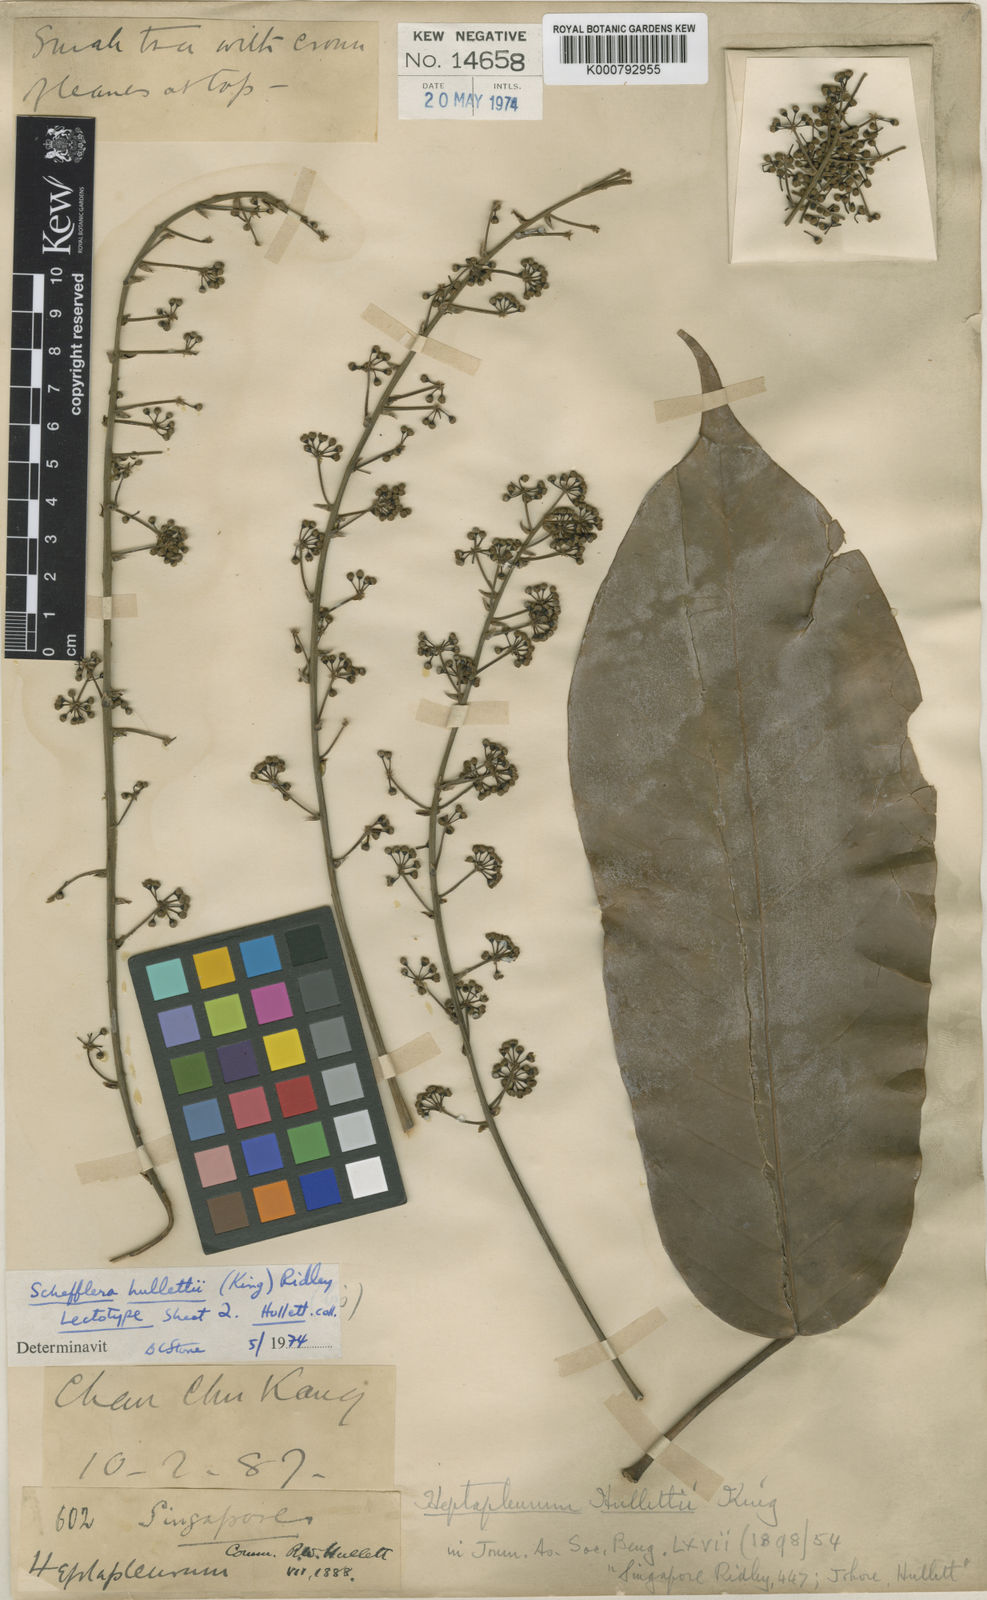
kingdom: Plantae
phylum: Tracheophyta
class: Magnoliopsida
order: Apiales
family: Araliaceae
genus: Heptapleurum
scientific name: Heptapleurum hullettii
